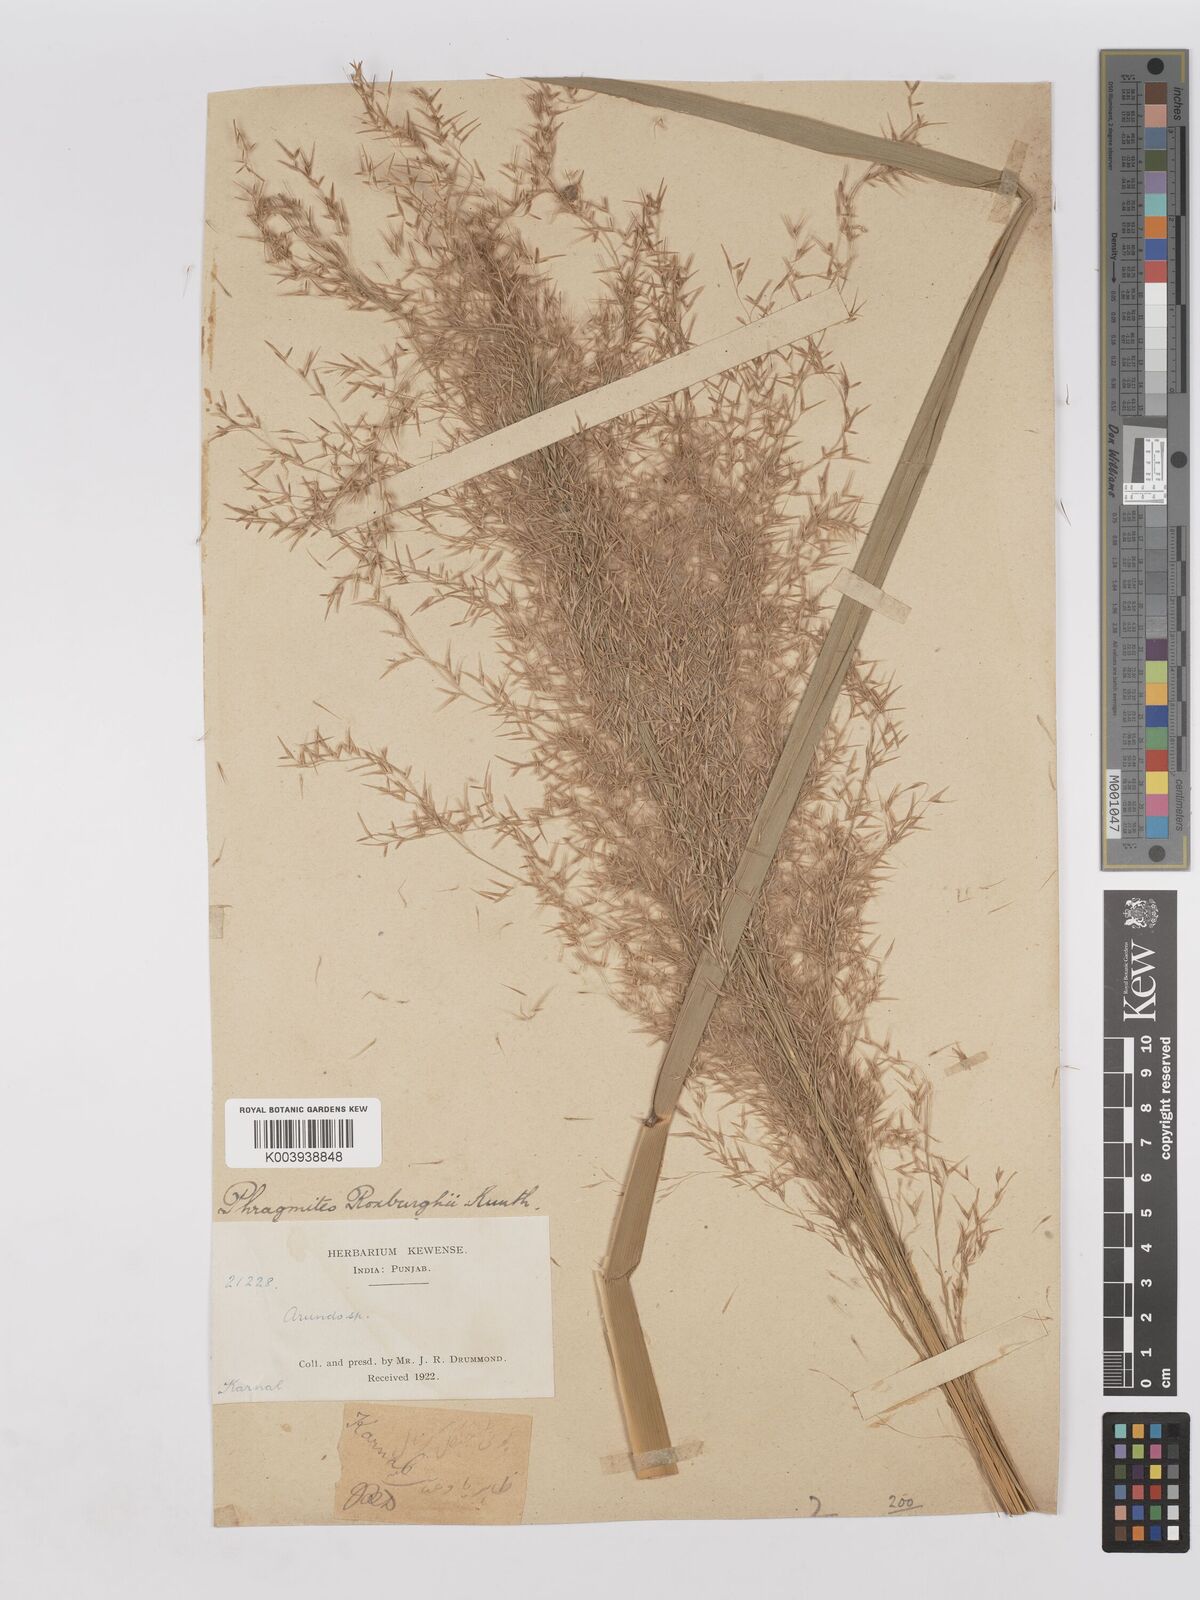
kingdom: Plantae
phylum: Tracheophyta
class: Liliopsida
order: Poales
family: Poaceae
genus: Phragmites
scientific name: Phragmites karka
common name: Tropical reed
